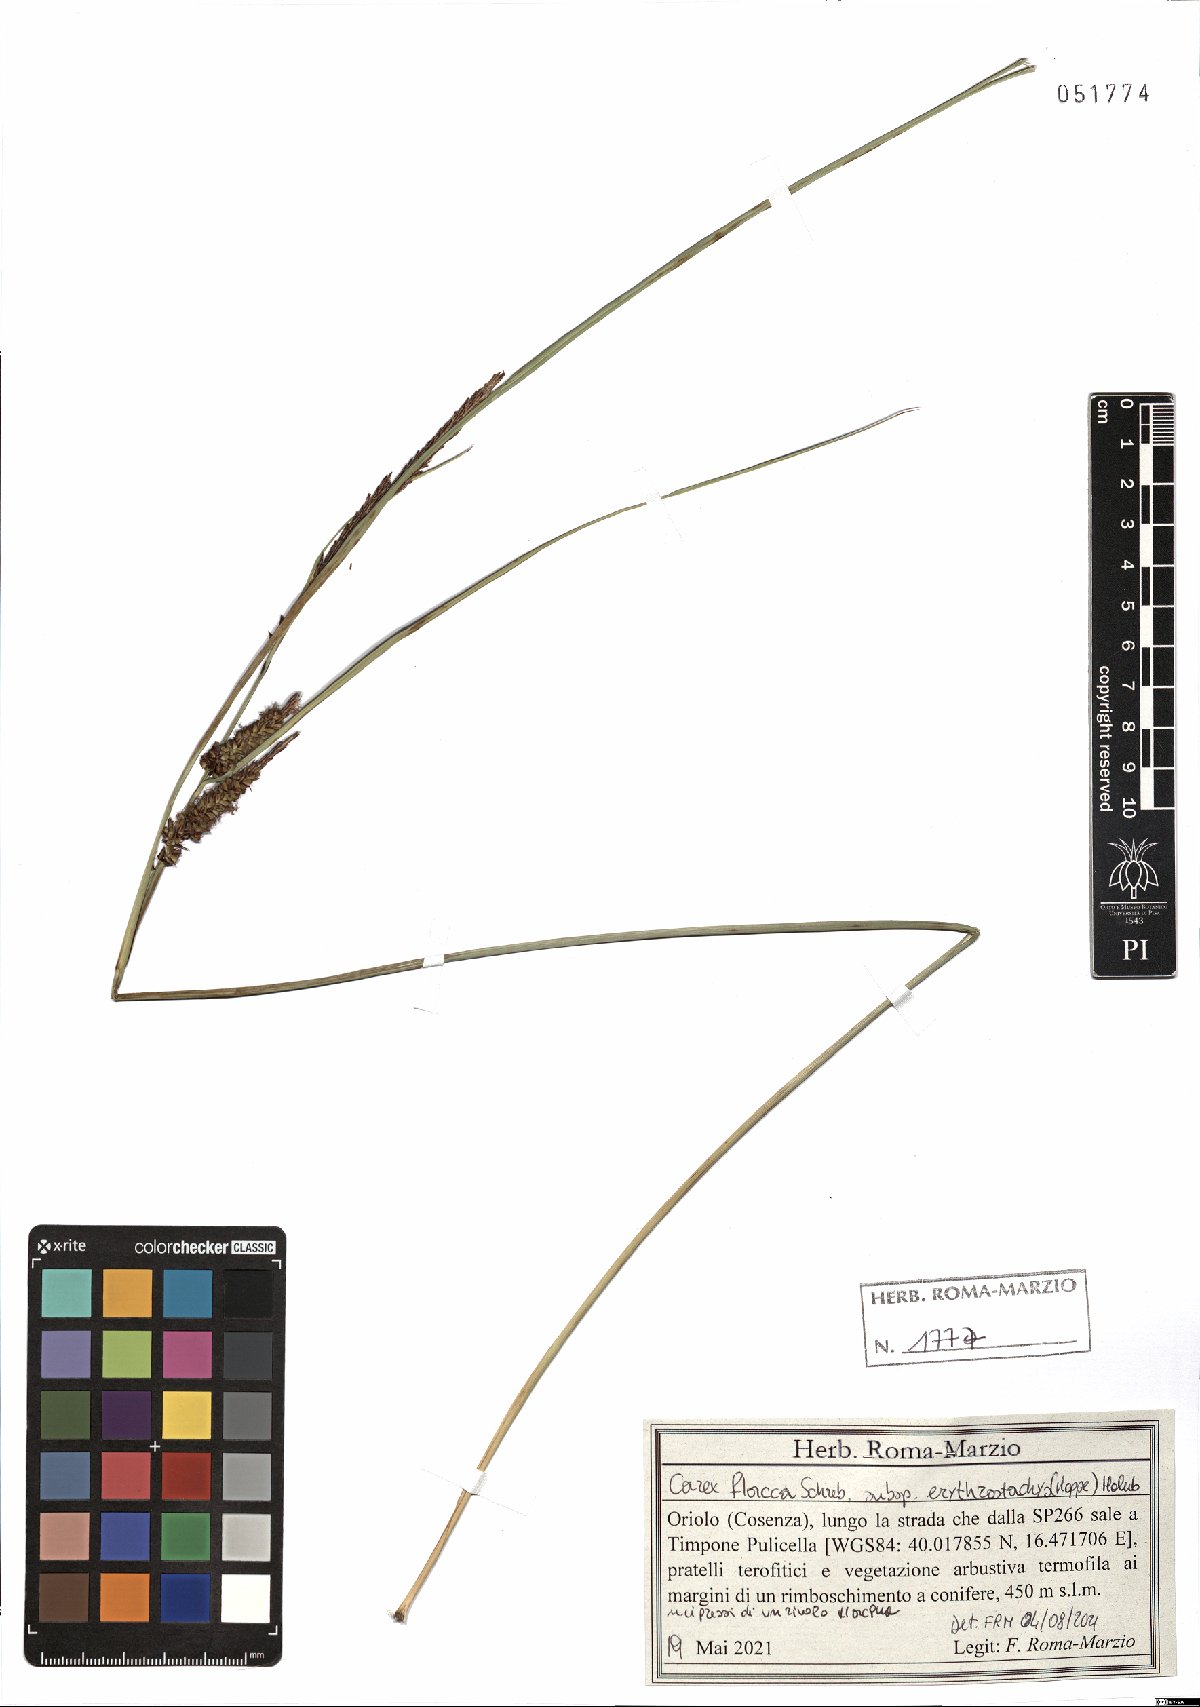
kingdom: Plantae
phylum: Tracheophyta
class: Liliopsida
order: Poales
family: Cyperaceae
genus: Carex
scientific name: Carex flacca
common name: Glaucous sedge
